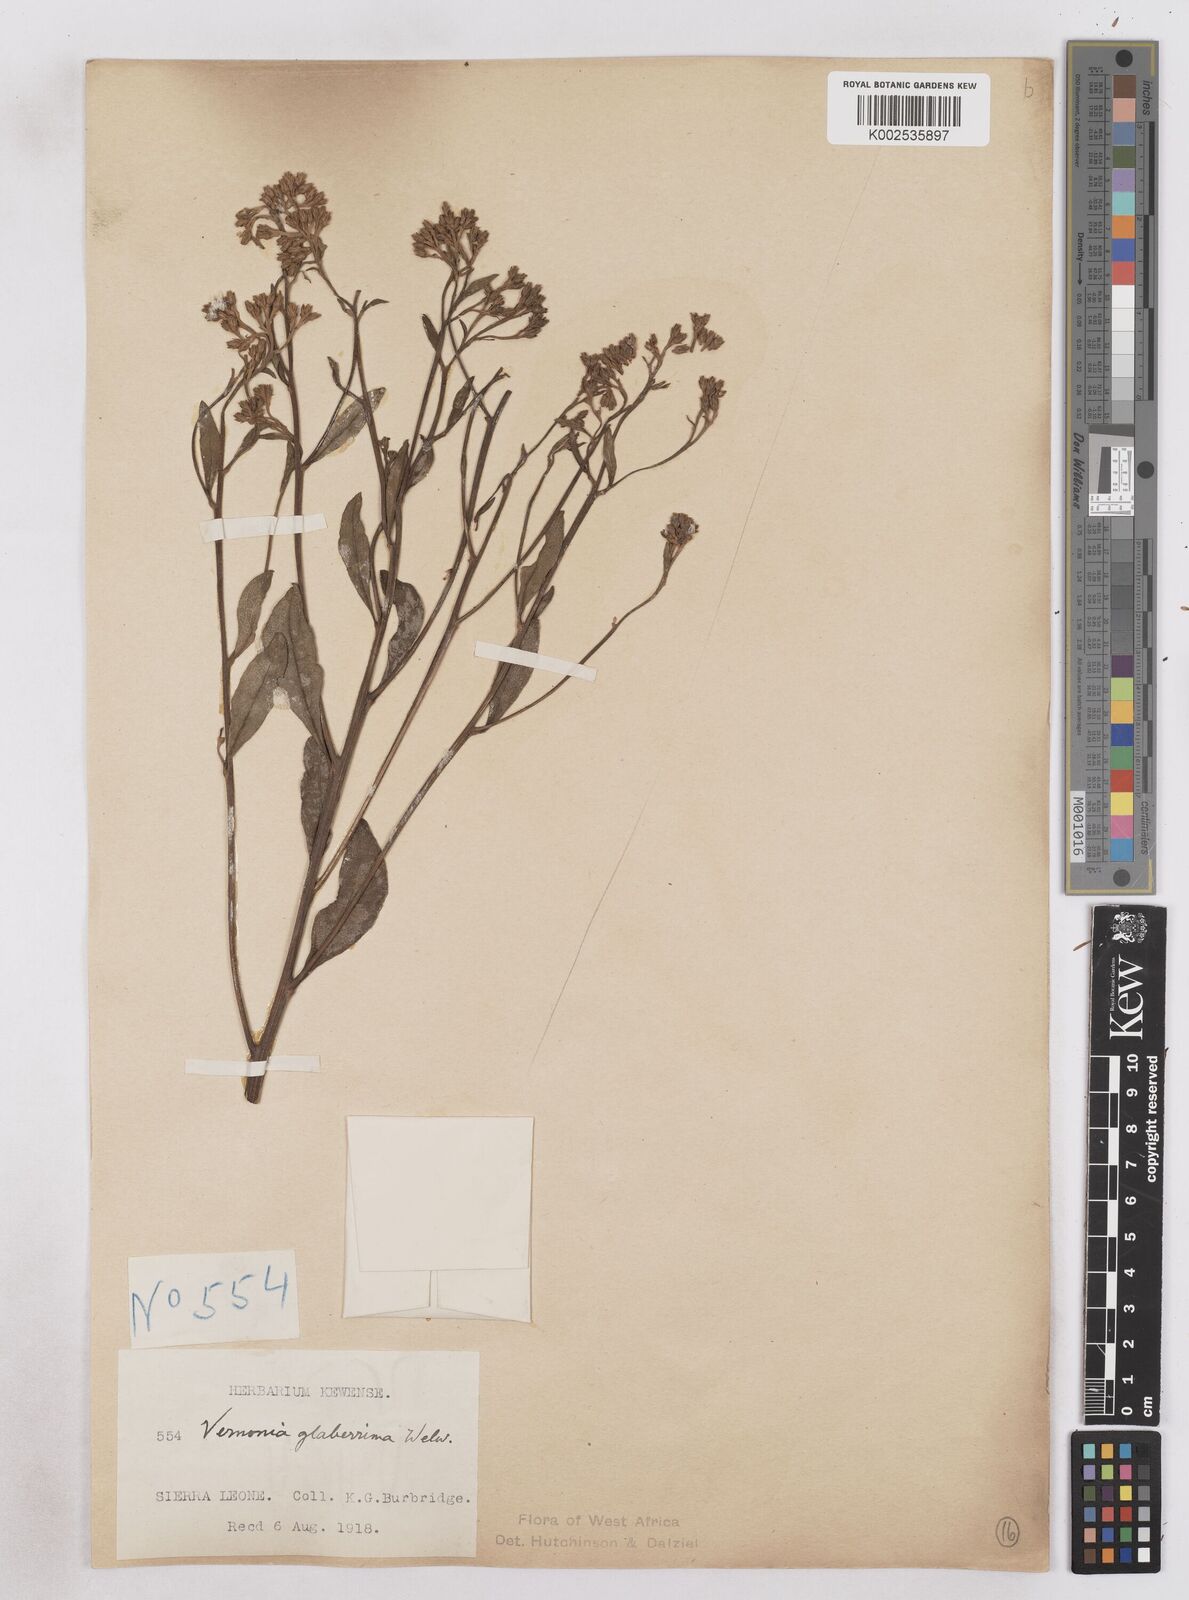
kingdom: Plantae
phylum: Tracheophyta
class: Magnoliopsida
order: Asterales
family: Asteraceae
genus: Gymnanthemum
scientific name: Gymnanthemum glaberrimum
